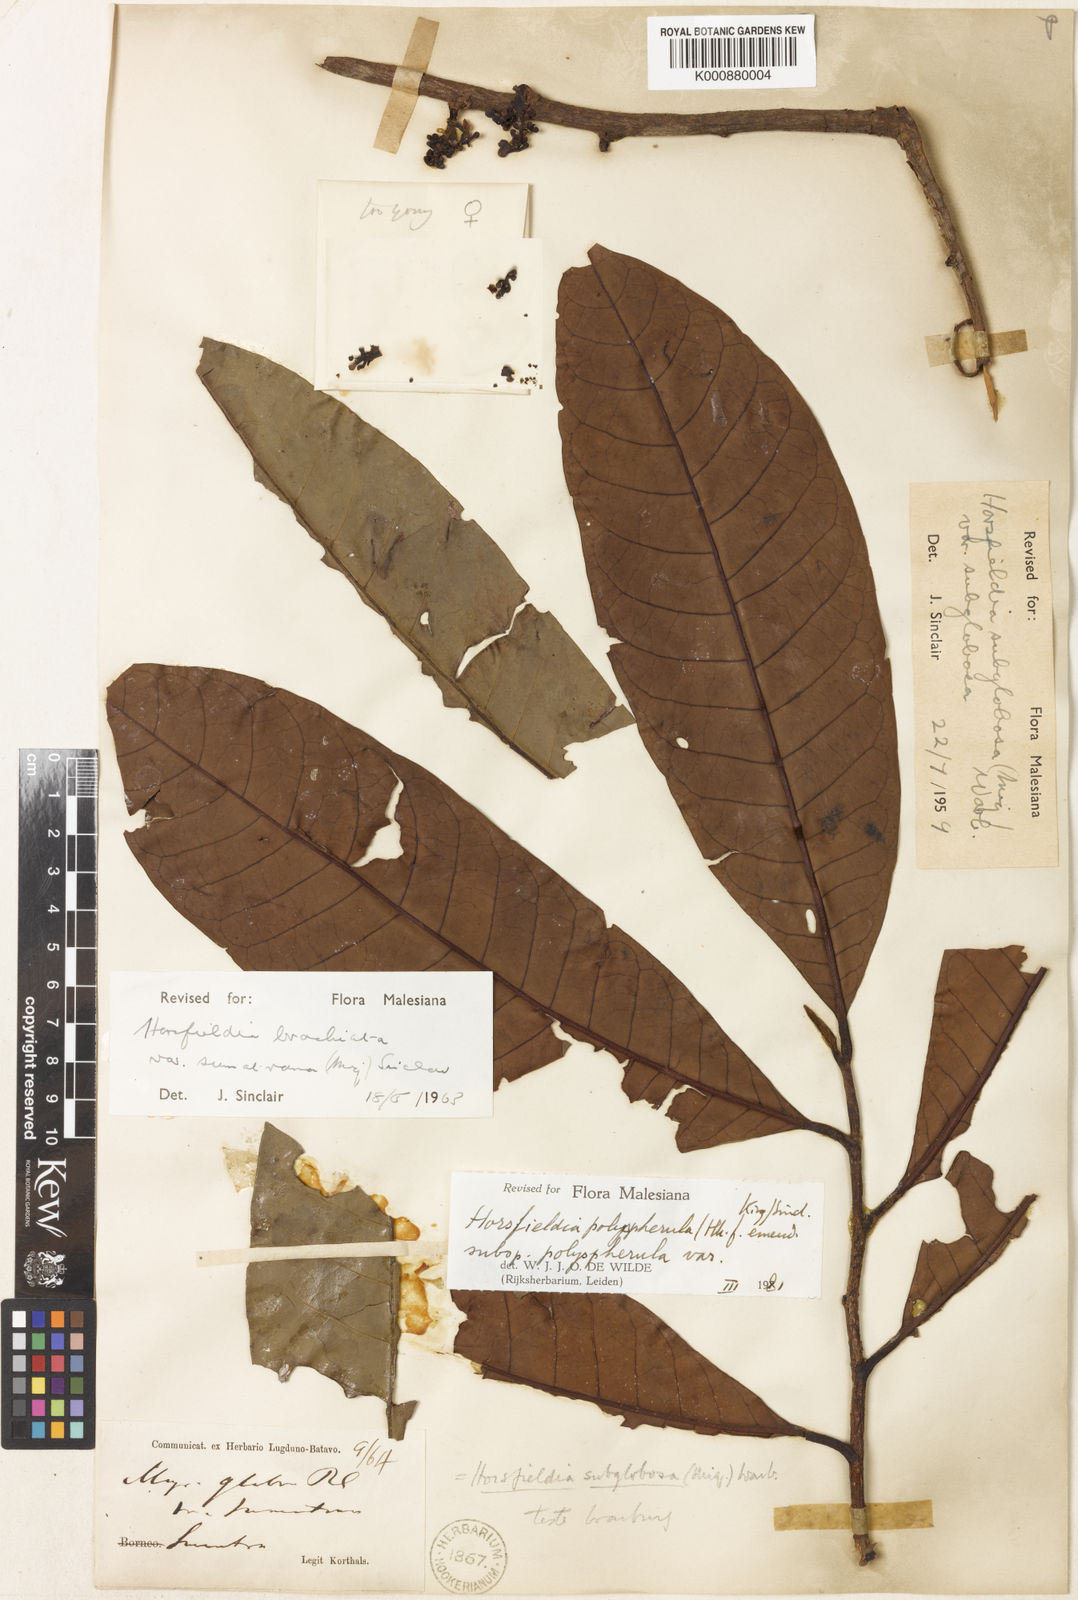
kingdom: Plantae
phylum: Tracheophyta
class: Magnoliopsida
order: Magnoliales
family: Myristicaceae
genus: Horsfieldia
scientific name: Horsfieldia polyspherula
